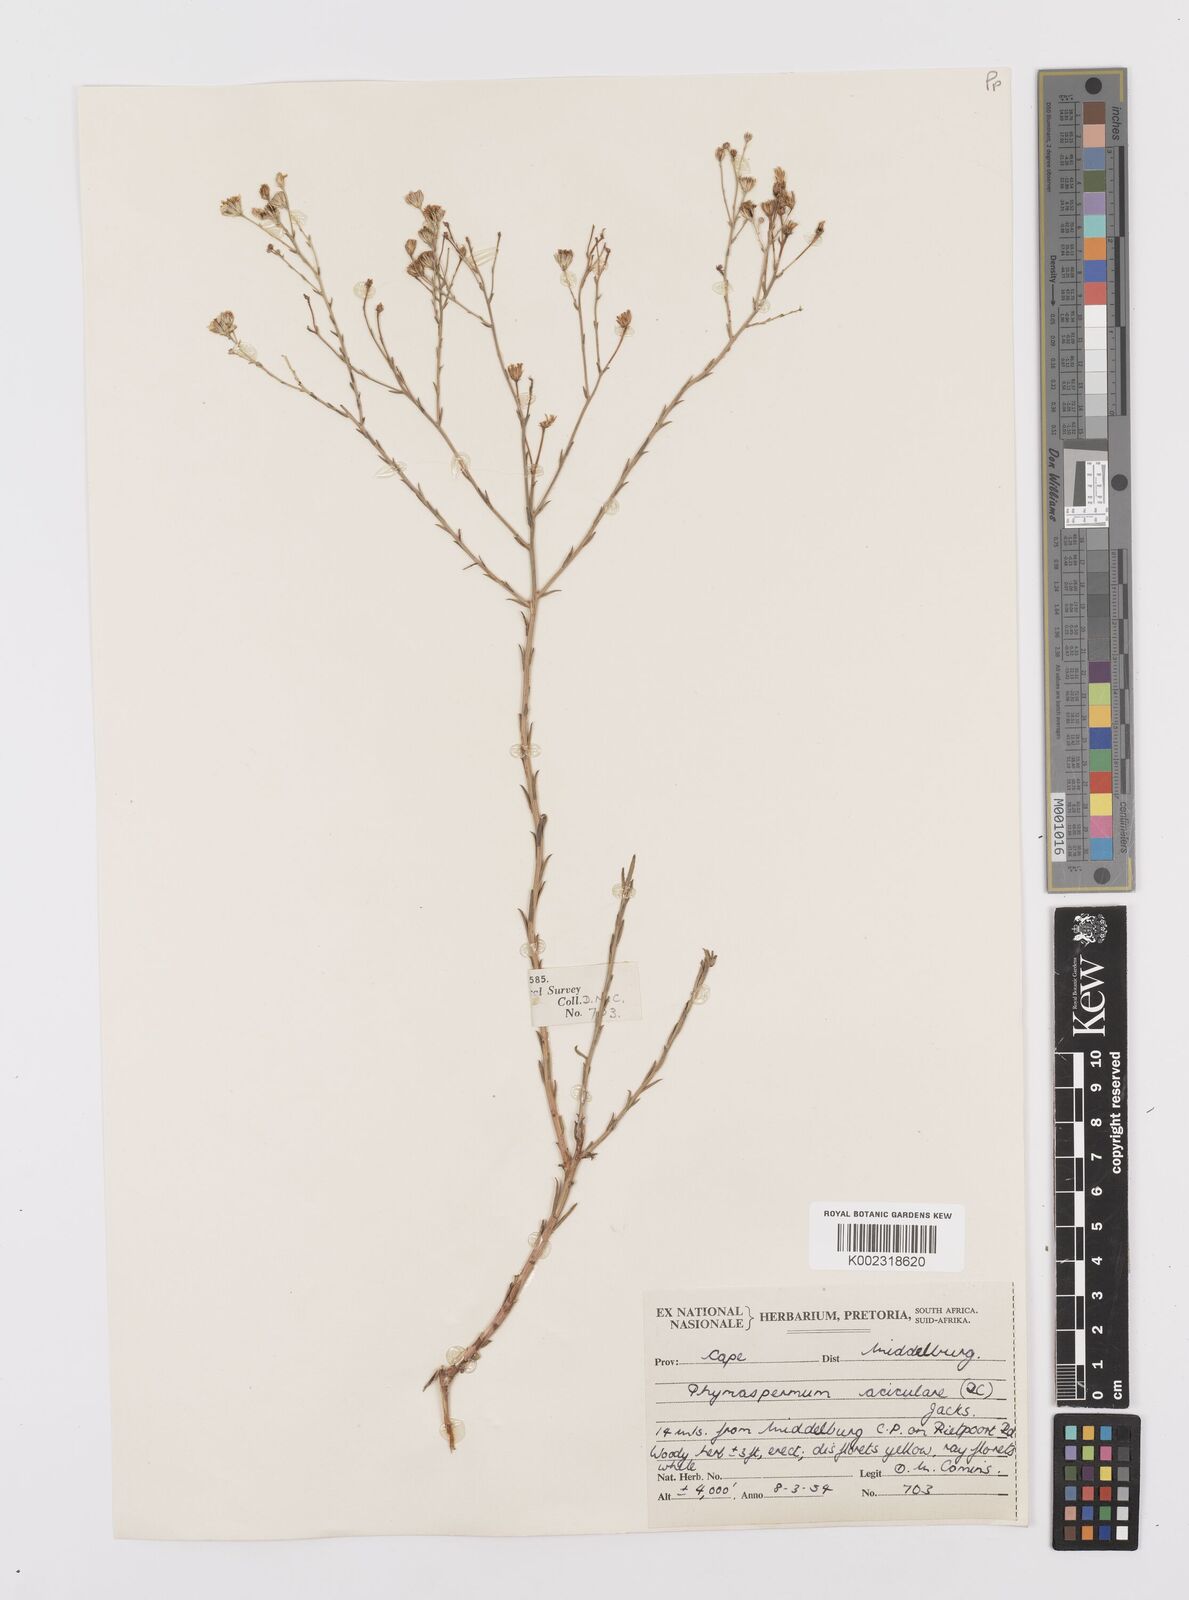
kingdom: Plantae
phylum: Tracheophyta
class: Magnoliopsida
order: Asterales
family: Asteraceae
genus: Phymaspermum
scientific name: Phymaspermum aciculare
